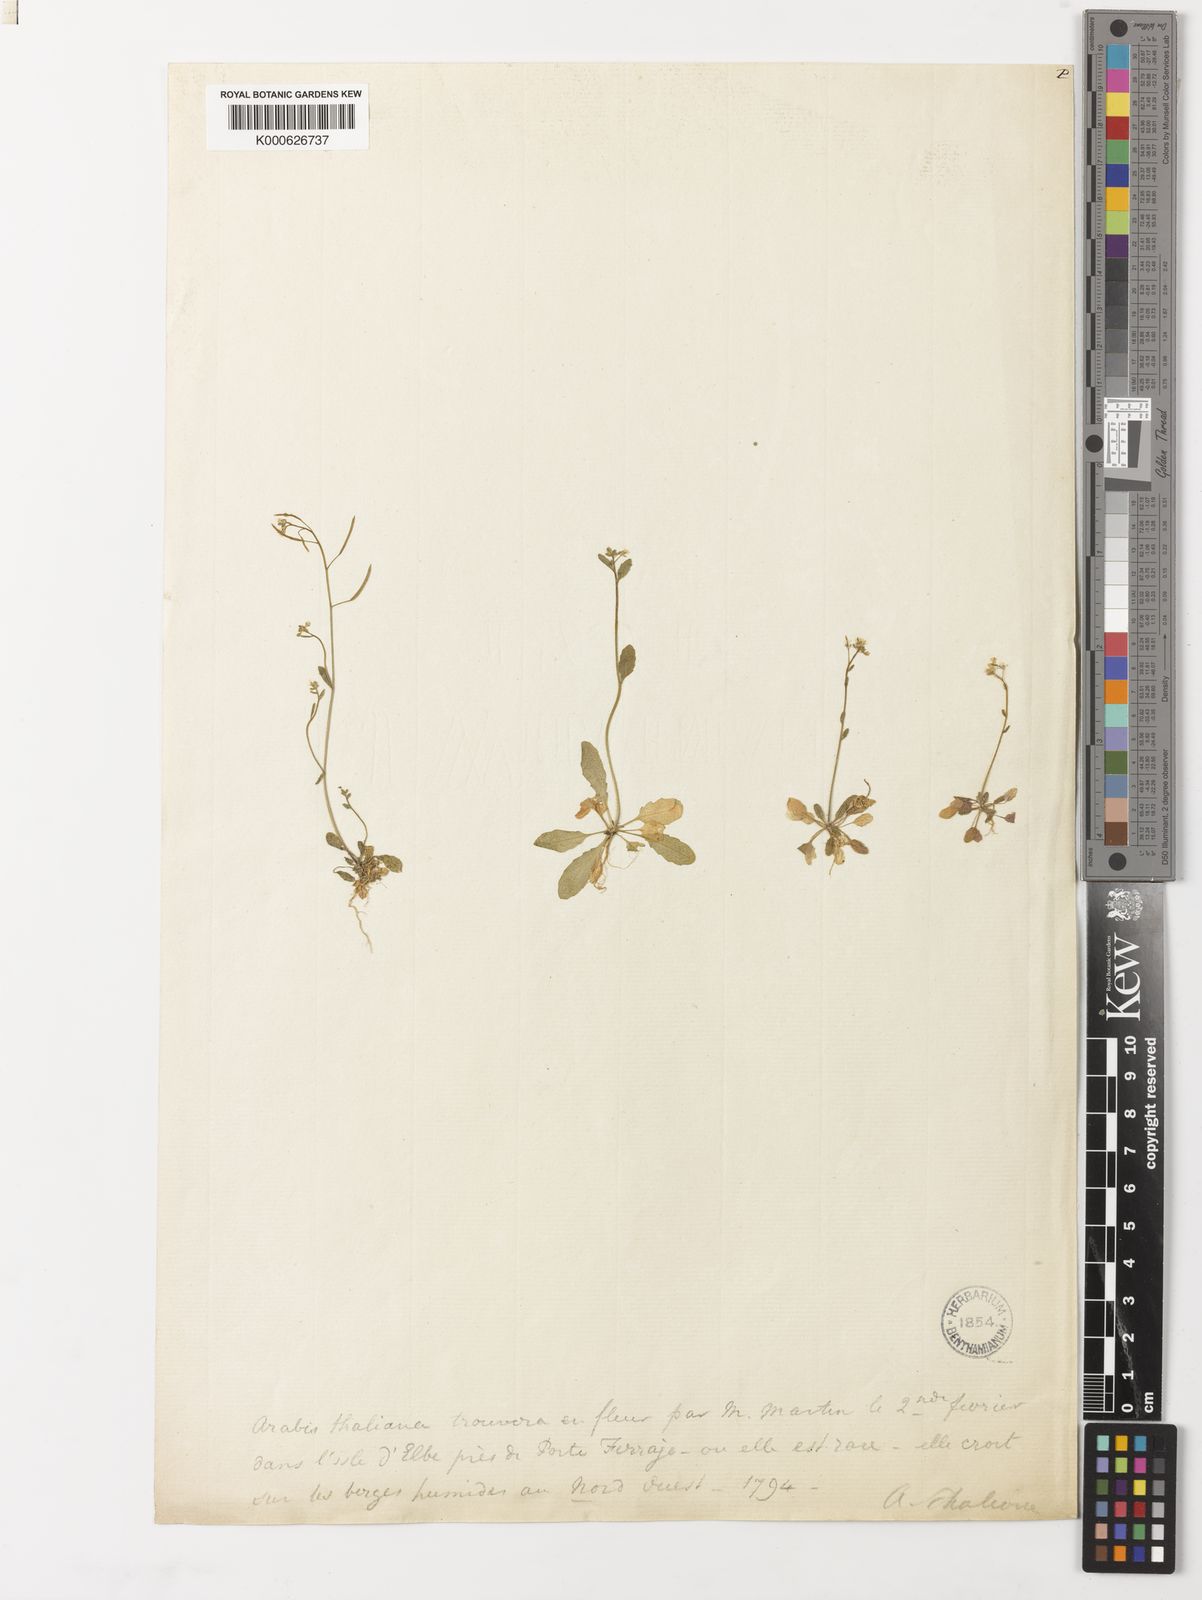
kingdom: Plantae
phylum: Tracheophyta
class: Magnoliopsida
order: Brassicales
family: Brassicaceae
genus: Arabidopsis
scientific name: Arabidopsis thaliana
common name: Thale cress
